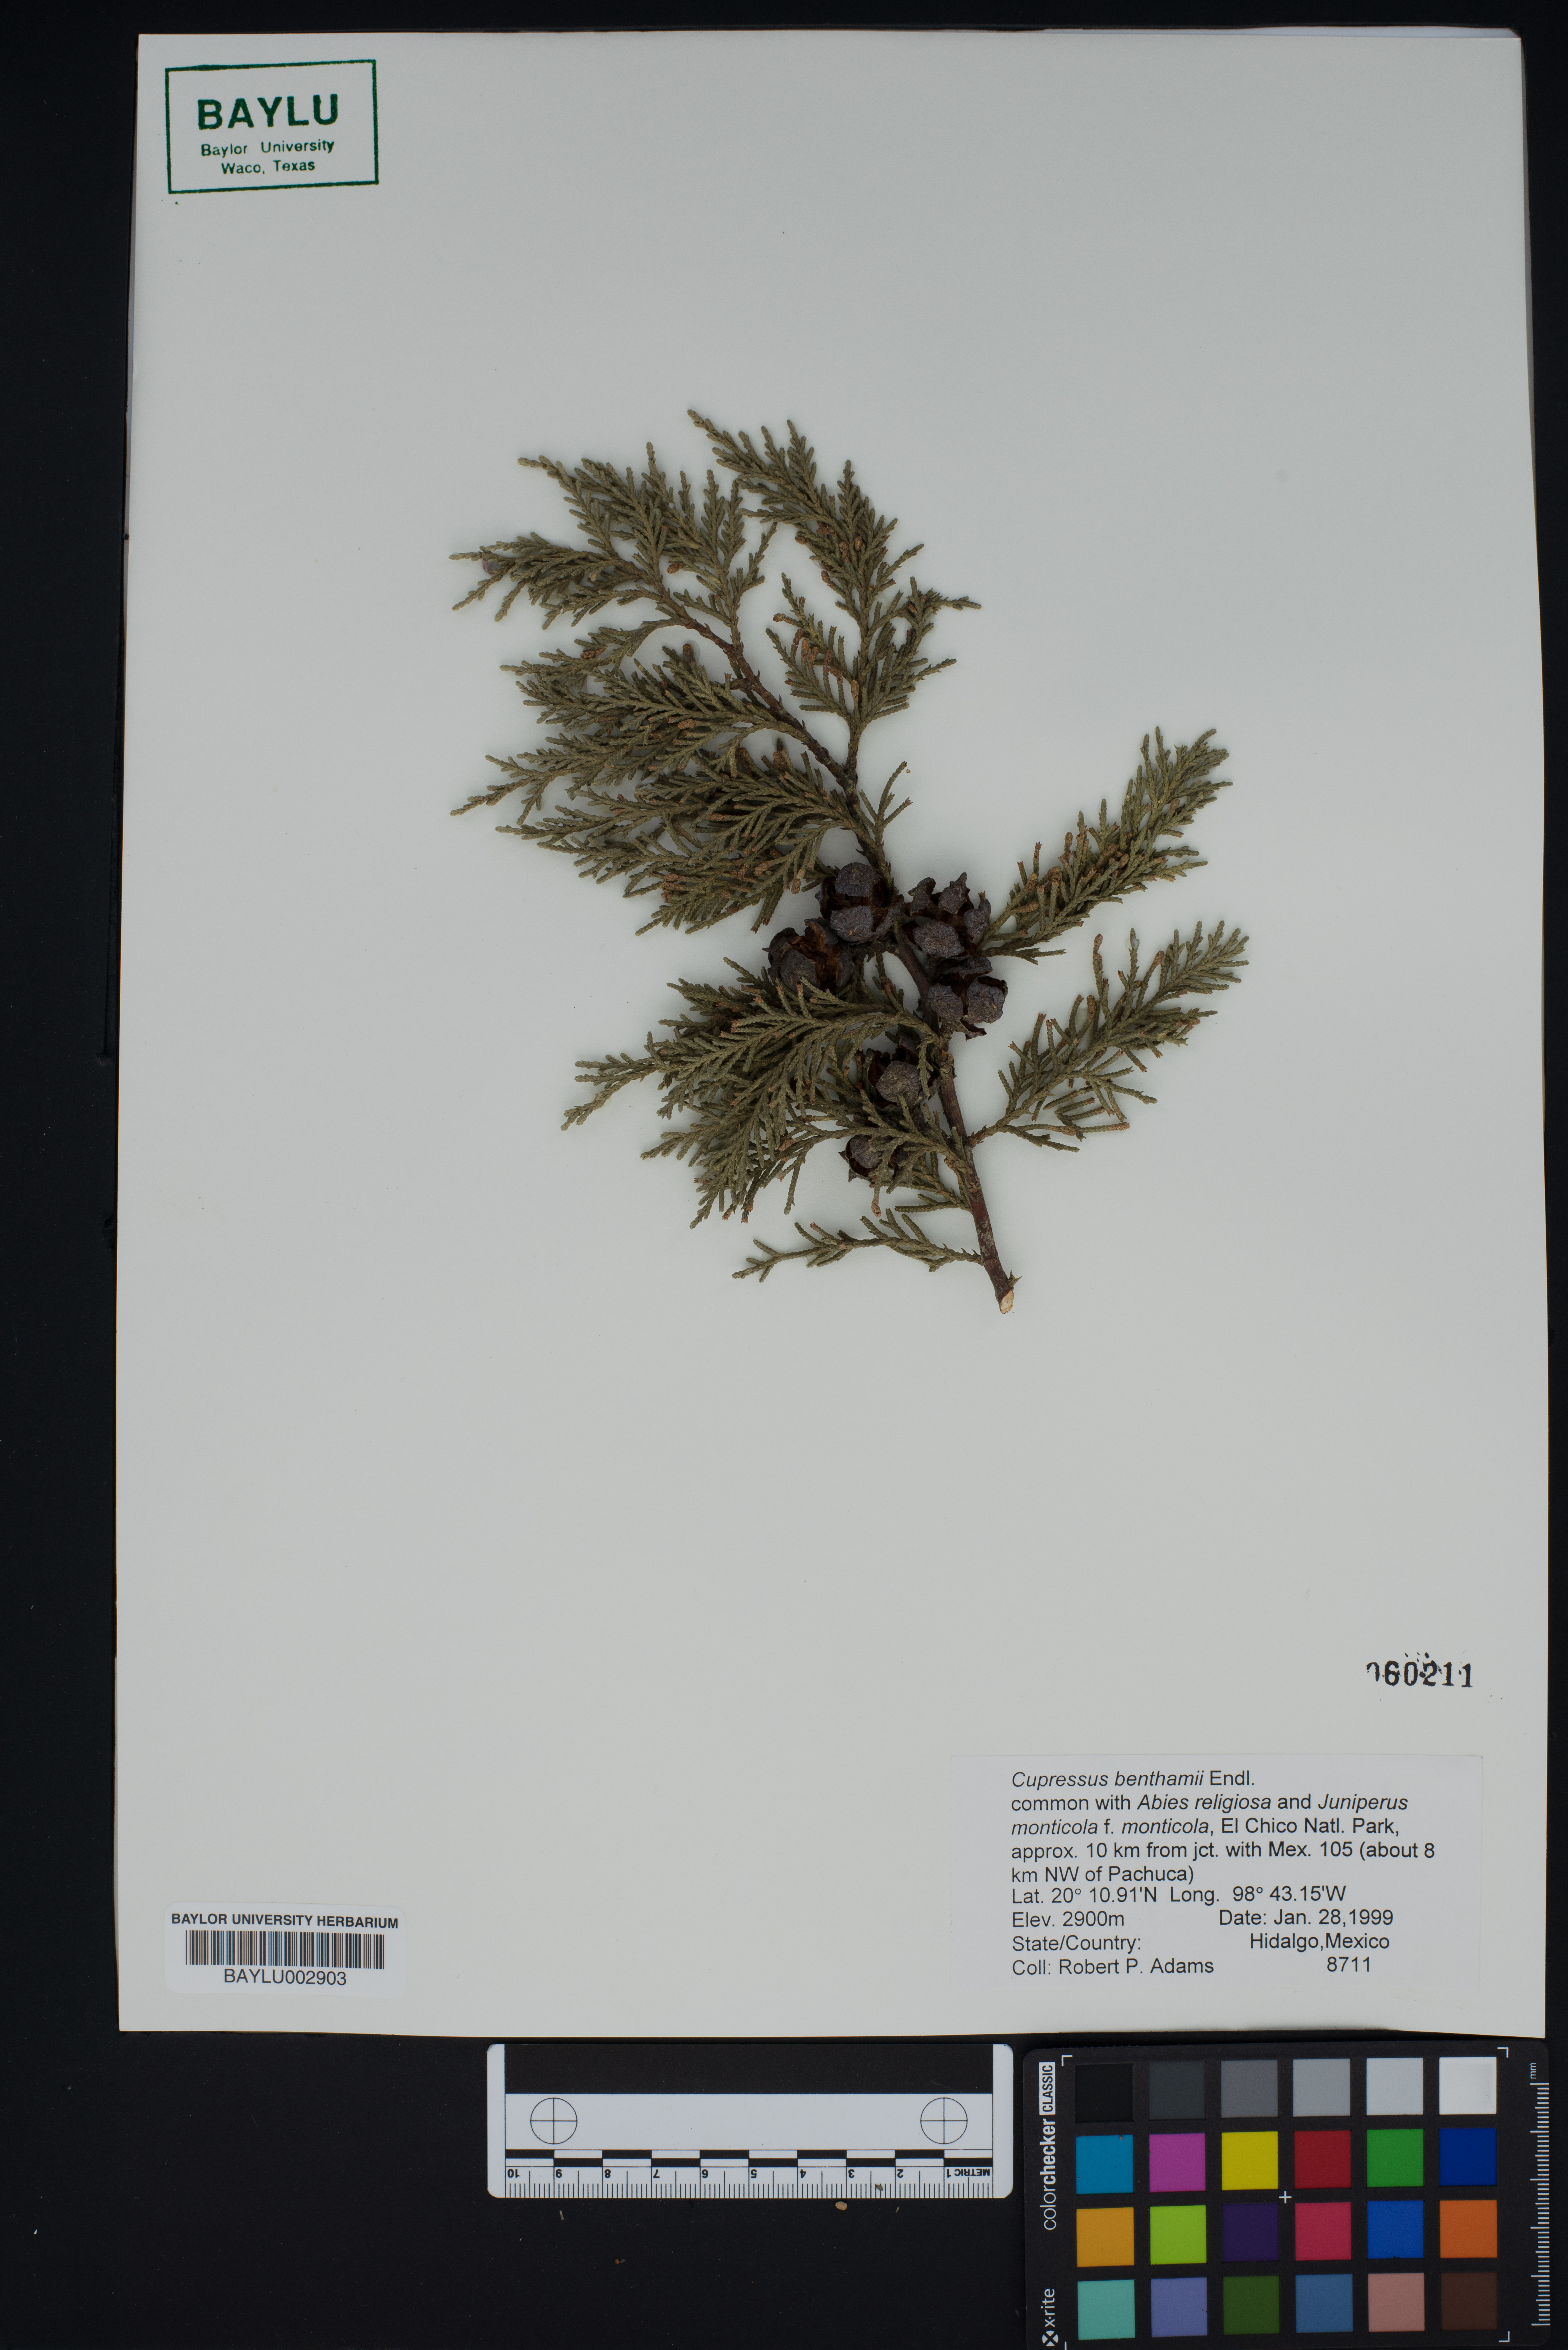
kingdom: Plantae
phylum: Tracheophyta
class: Pinopsida
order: Pinales
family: Cupressaceae
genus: Cupressus
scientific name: Cupressus lusitanica
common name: Mexican cypress
